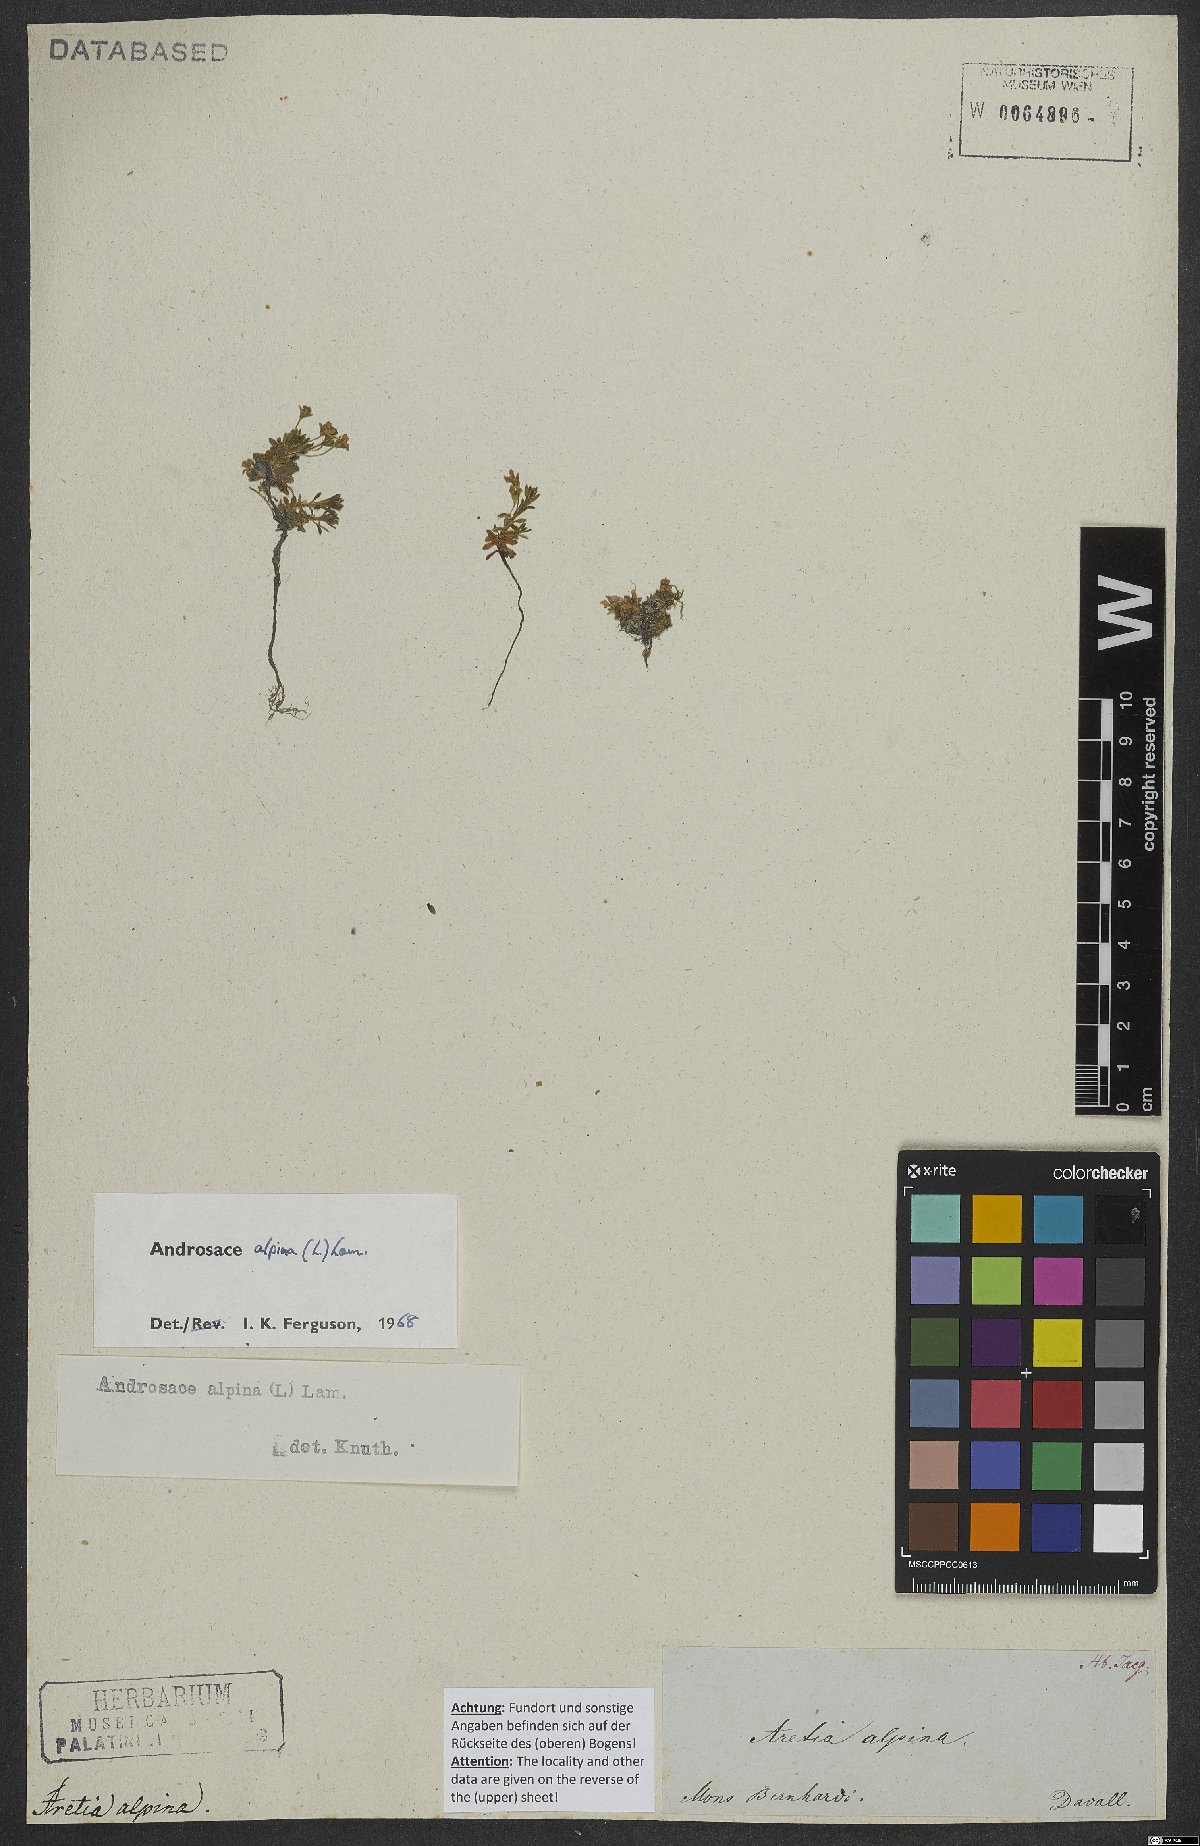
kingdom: Plantae
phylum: Tracheophyta
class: Magnoliopsida
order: Ericales
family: Primulaceae
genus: Androsace
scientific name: Androsace alpina
